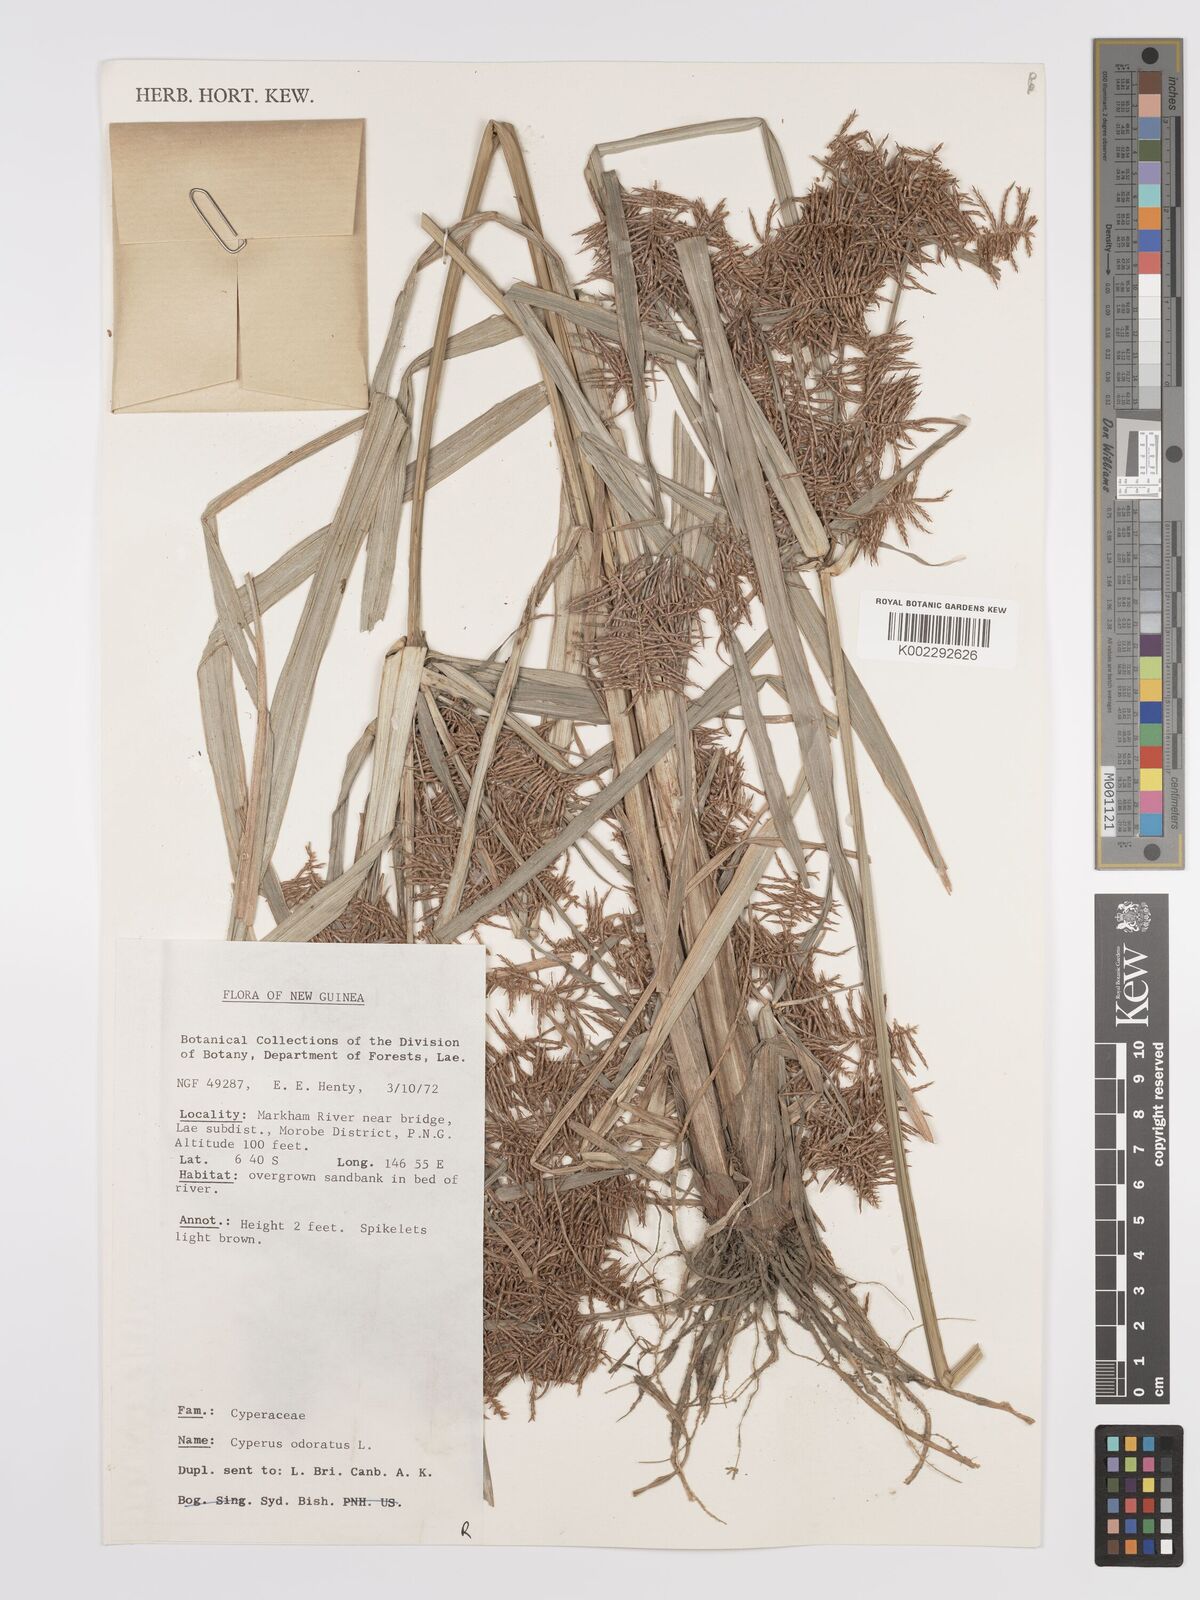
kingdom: Plantae
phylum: Tracheophyta
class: Liliopsida
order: Poales
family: Cyperaceae
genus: Cyperus
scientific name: Cyperus odoratus
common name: Fragrant flatsedge
